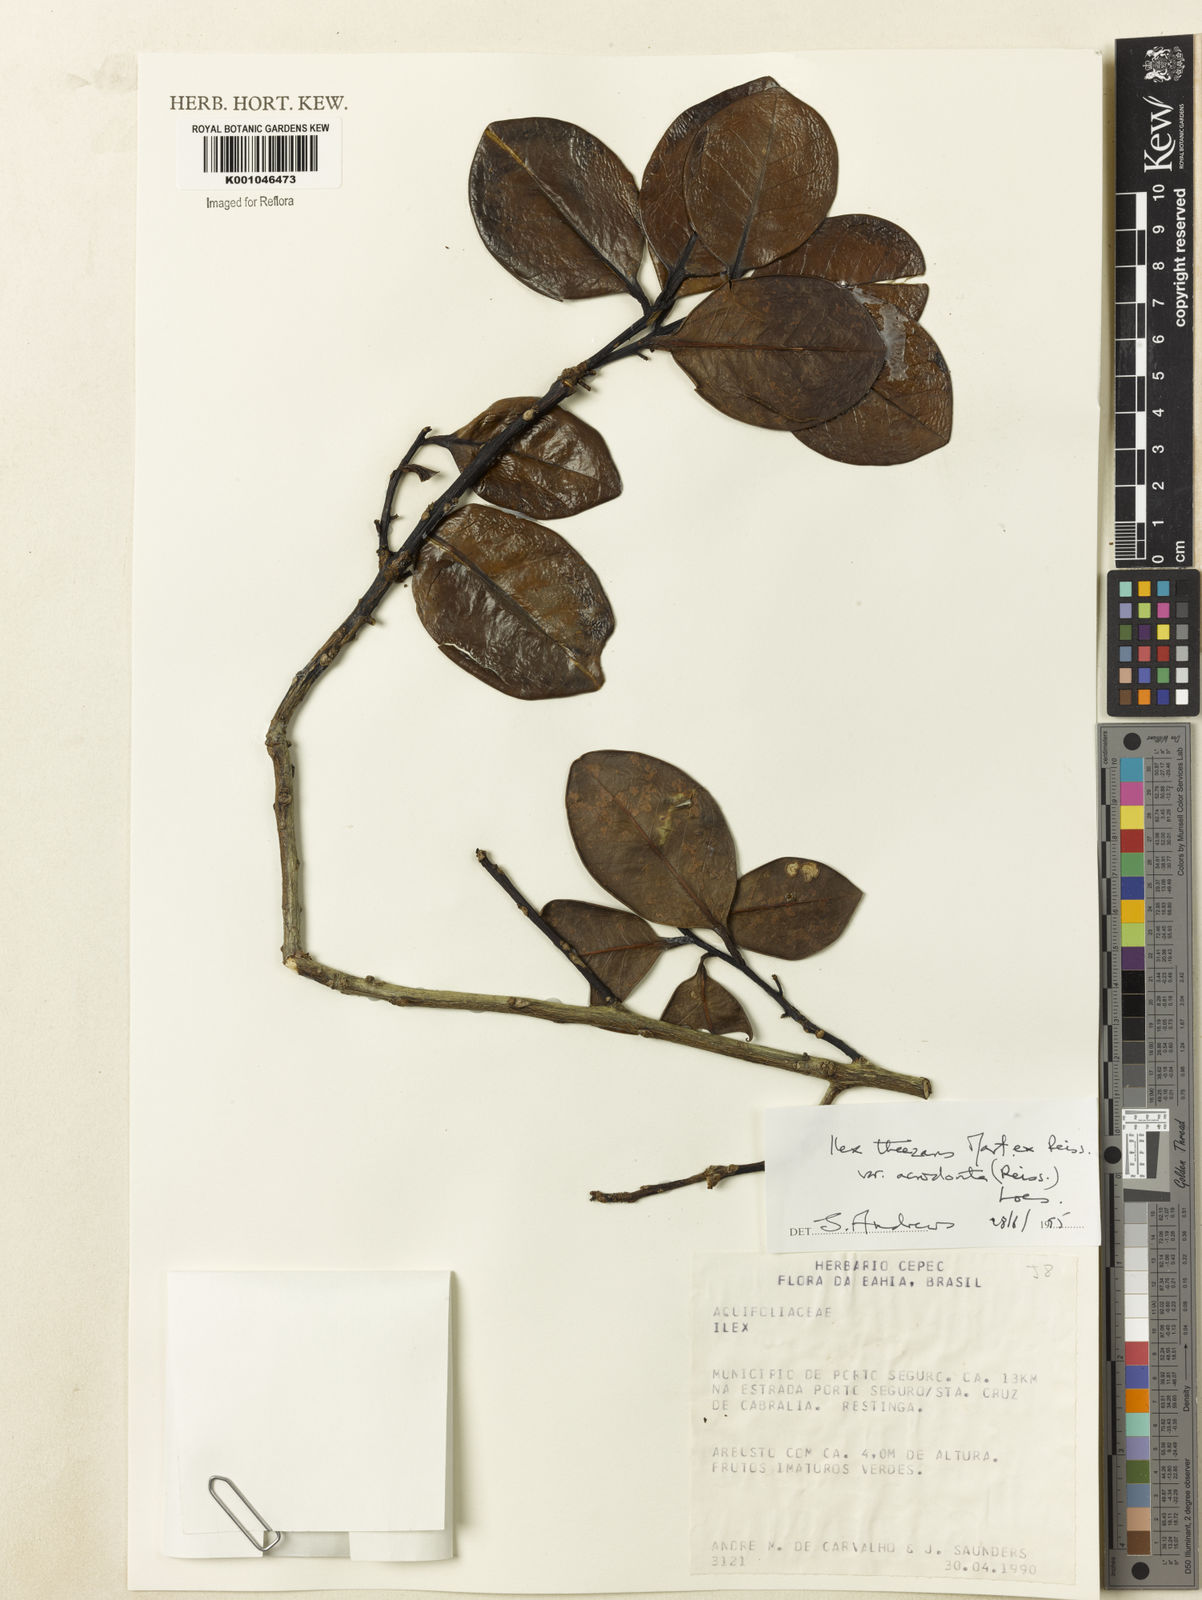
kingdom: Plantae
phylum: Tracheophyta
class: Magnoliopsida
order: Aquifoliales
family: Aquifoliaceae
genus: Ilex
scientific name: Ilex paraguariensis
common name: Paraguay tea
